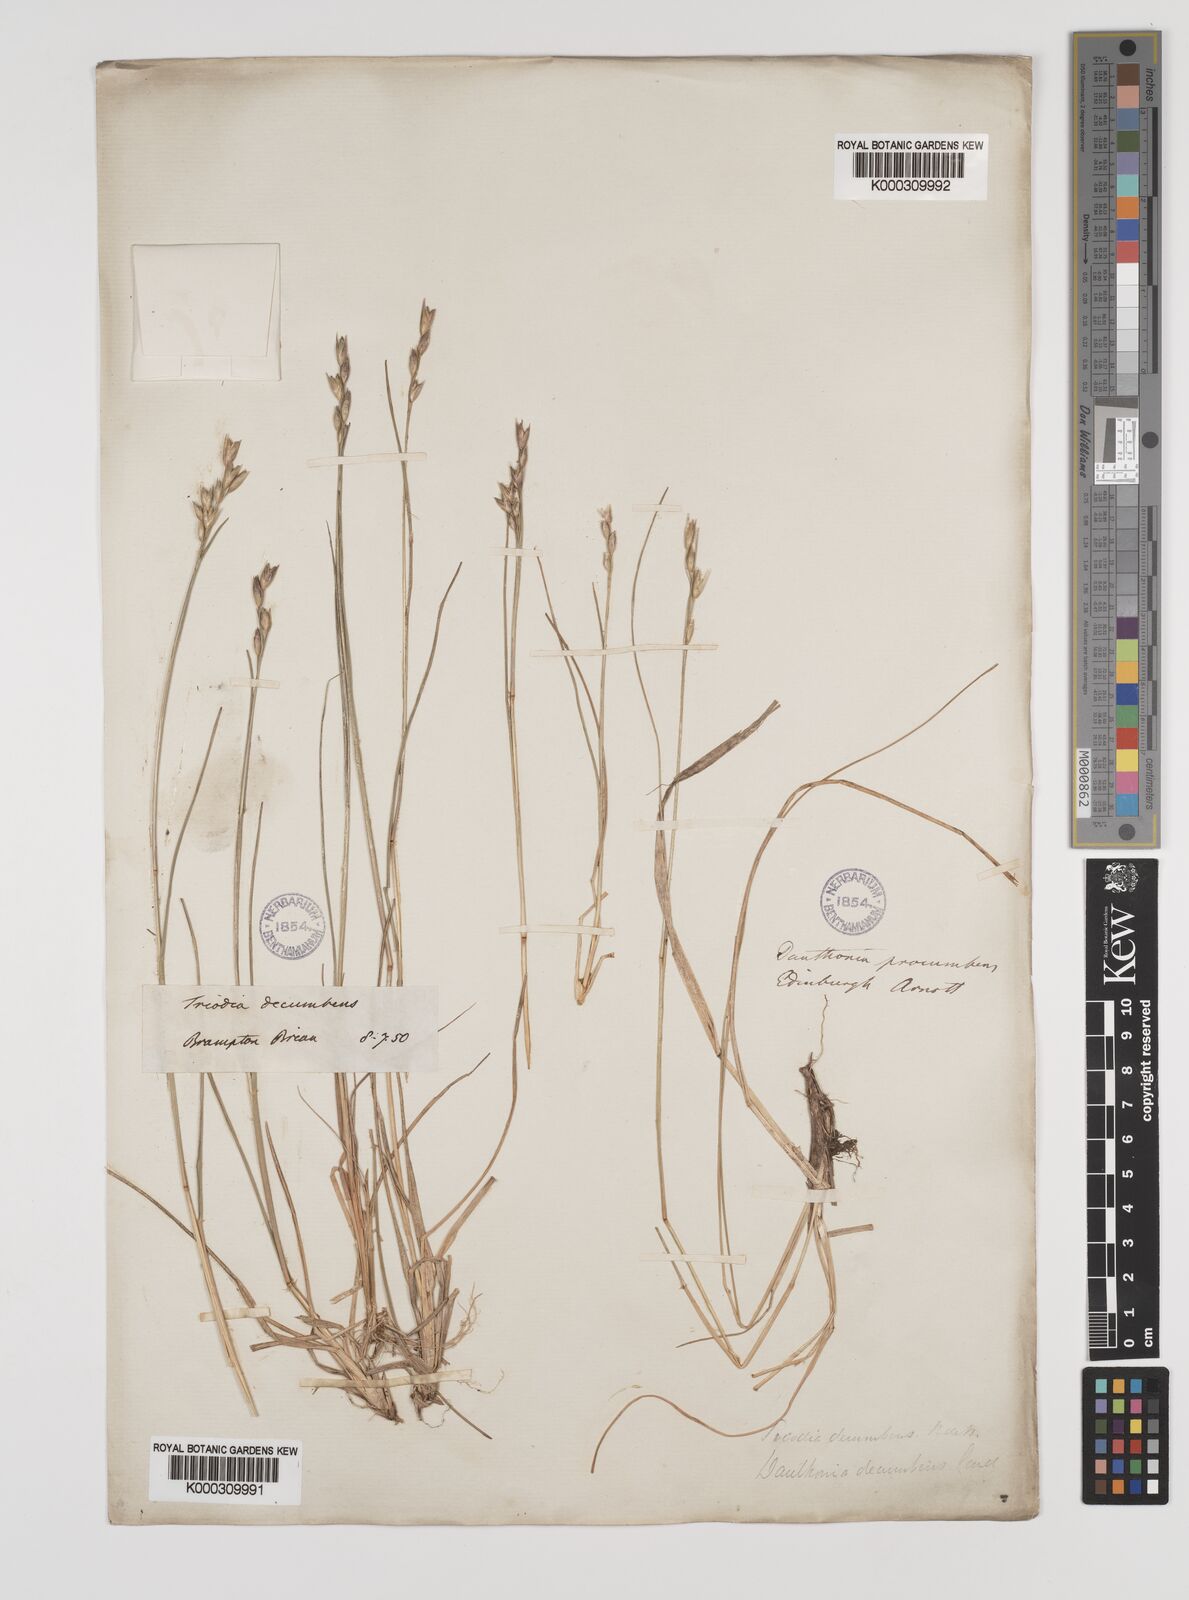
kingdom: Plantae
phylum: Tracheophyta
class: Liliopsida
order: Poales
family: Poaceae
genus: Danthonia
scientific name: Danthonia decumbens
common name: Common heathgrass
